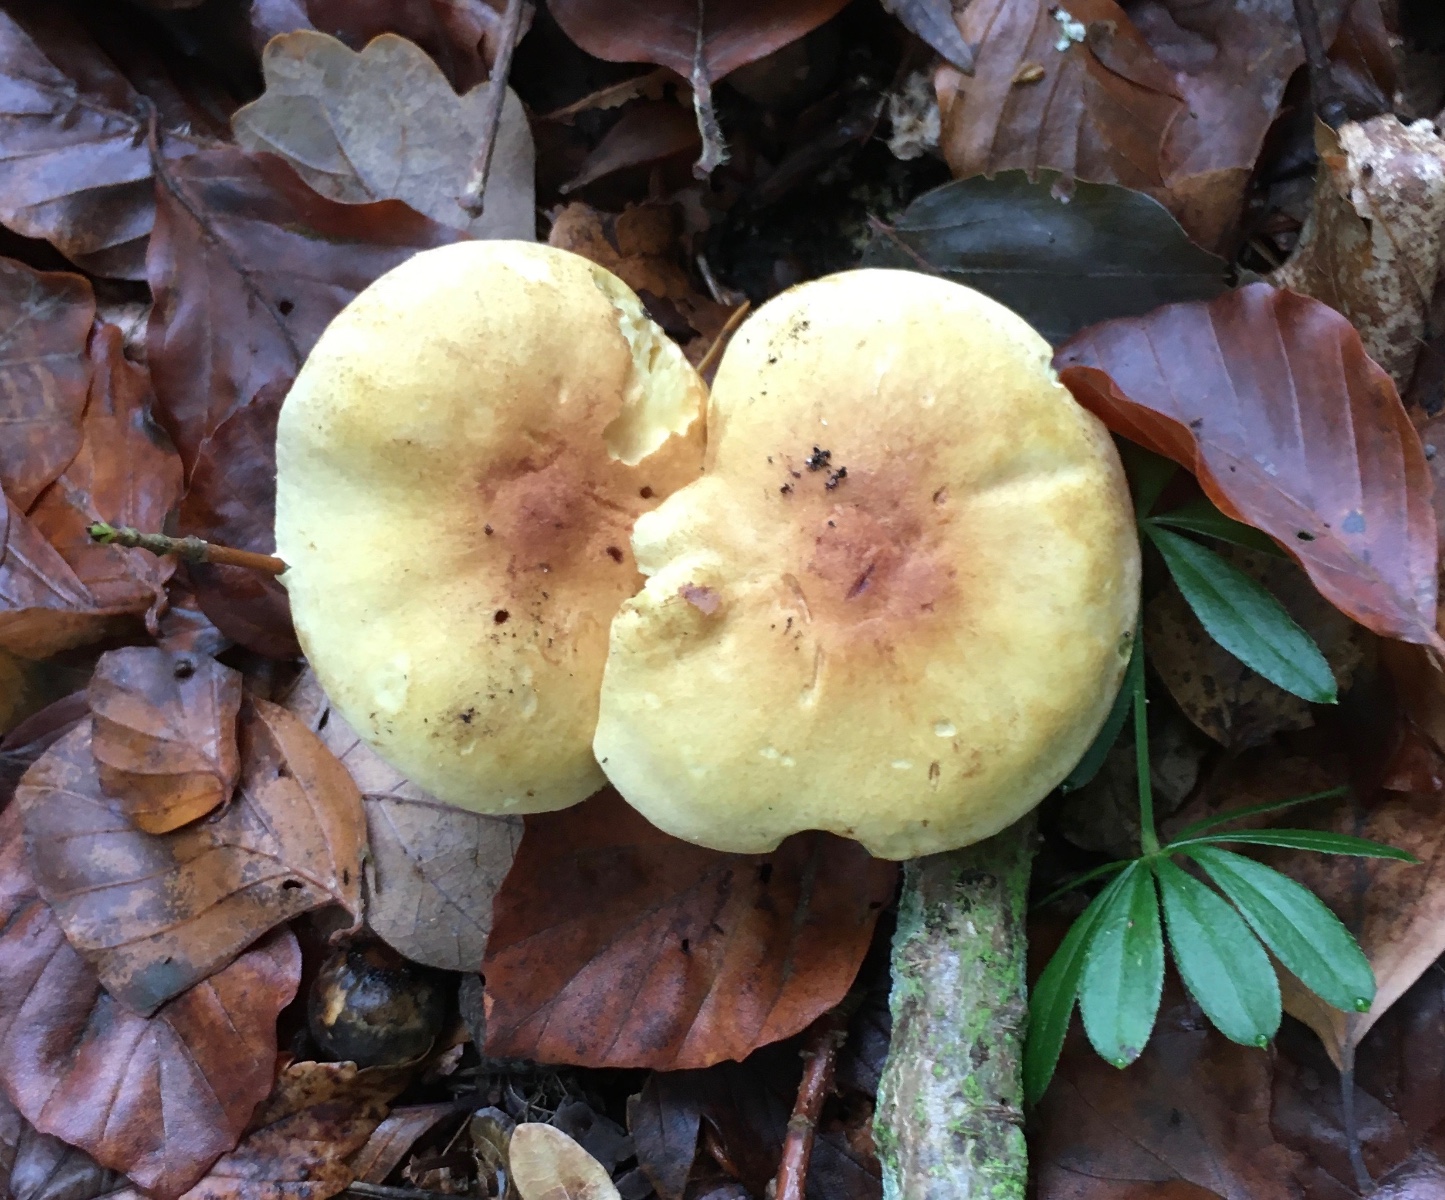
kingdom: Fungi
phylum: Basidiomycota
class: Agaricomycetes
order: Agaricales
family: Tricholomataceae
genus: Tricholoma
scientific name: Tricholoma sulphureum
